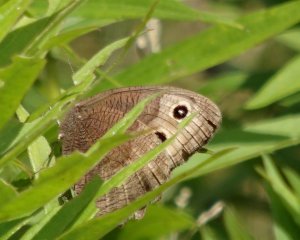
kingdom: Animalia
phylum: Arthropoda
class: Insecta
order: Lepidoptera
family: Nymphalidae
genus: Cercyonis
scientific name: Cercyonis pegala
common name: Common Wood-Nymph
